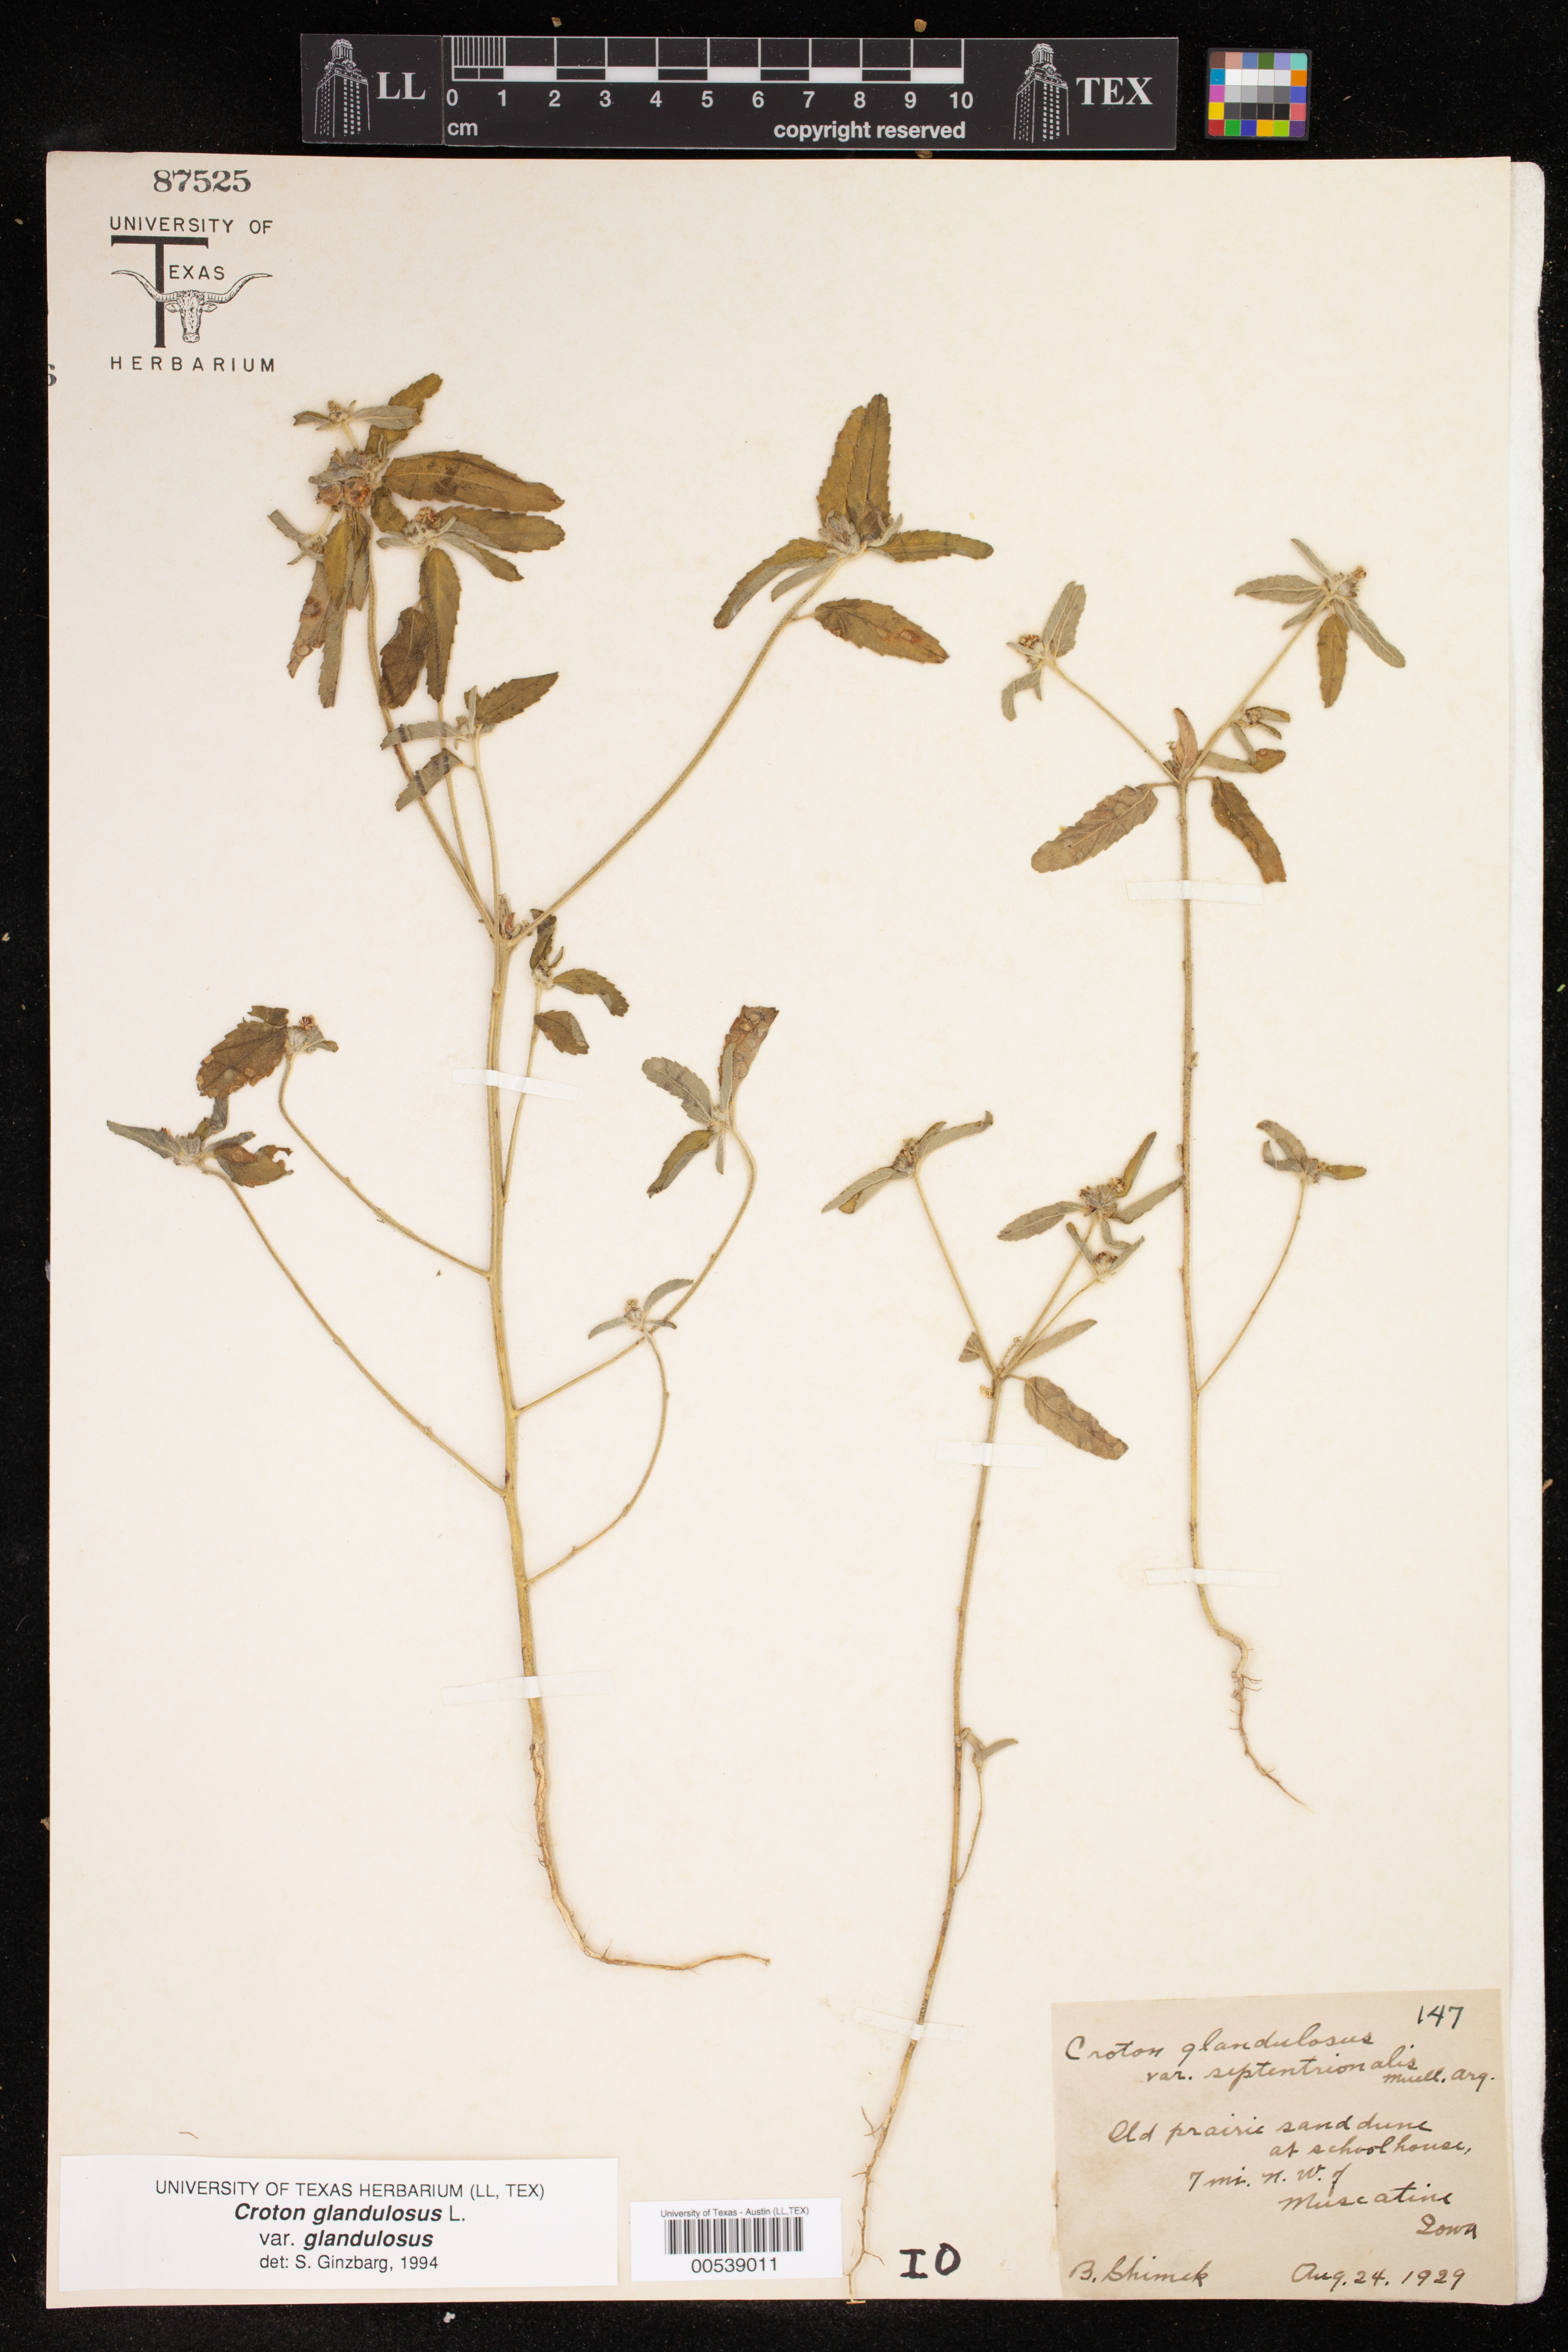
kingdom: Plantae
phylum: Tracheophyta
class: Magnoliopsida
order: Malpighiales
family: Euphorbiaceae
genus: Croton
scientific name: Croton glandulosus
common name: Tropic croton
